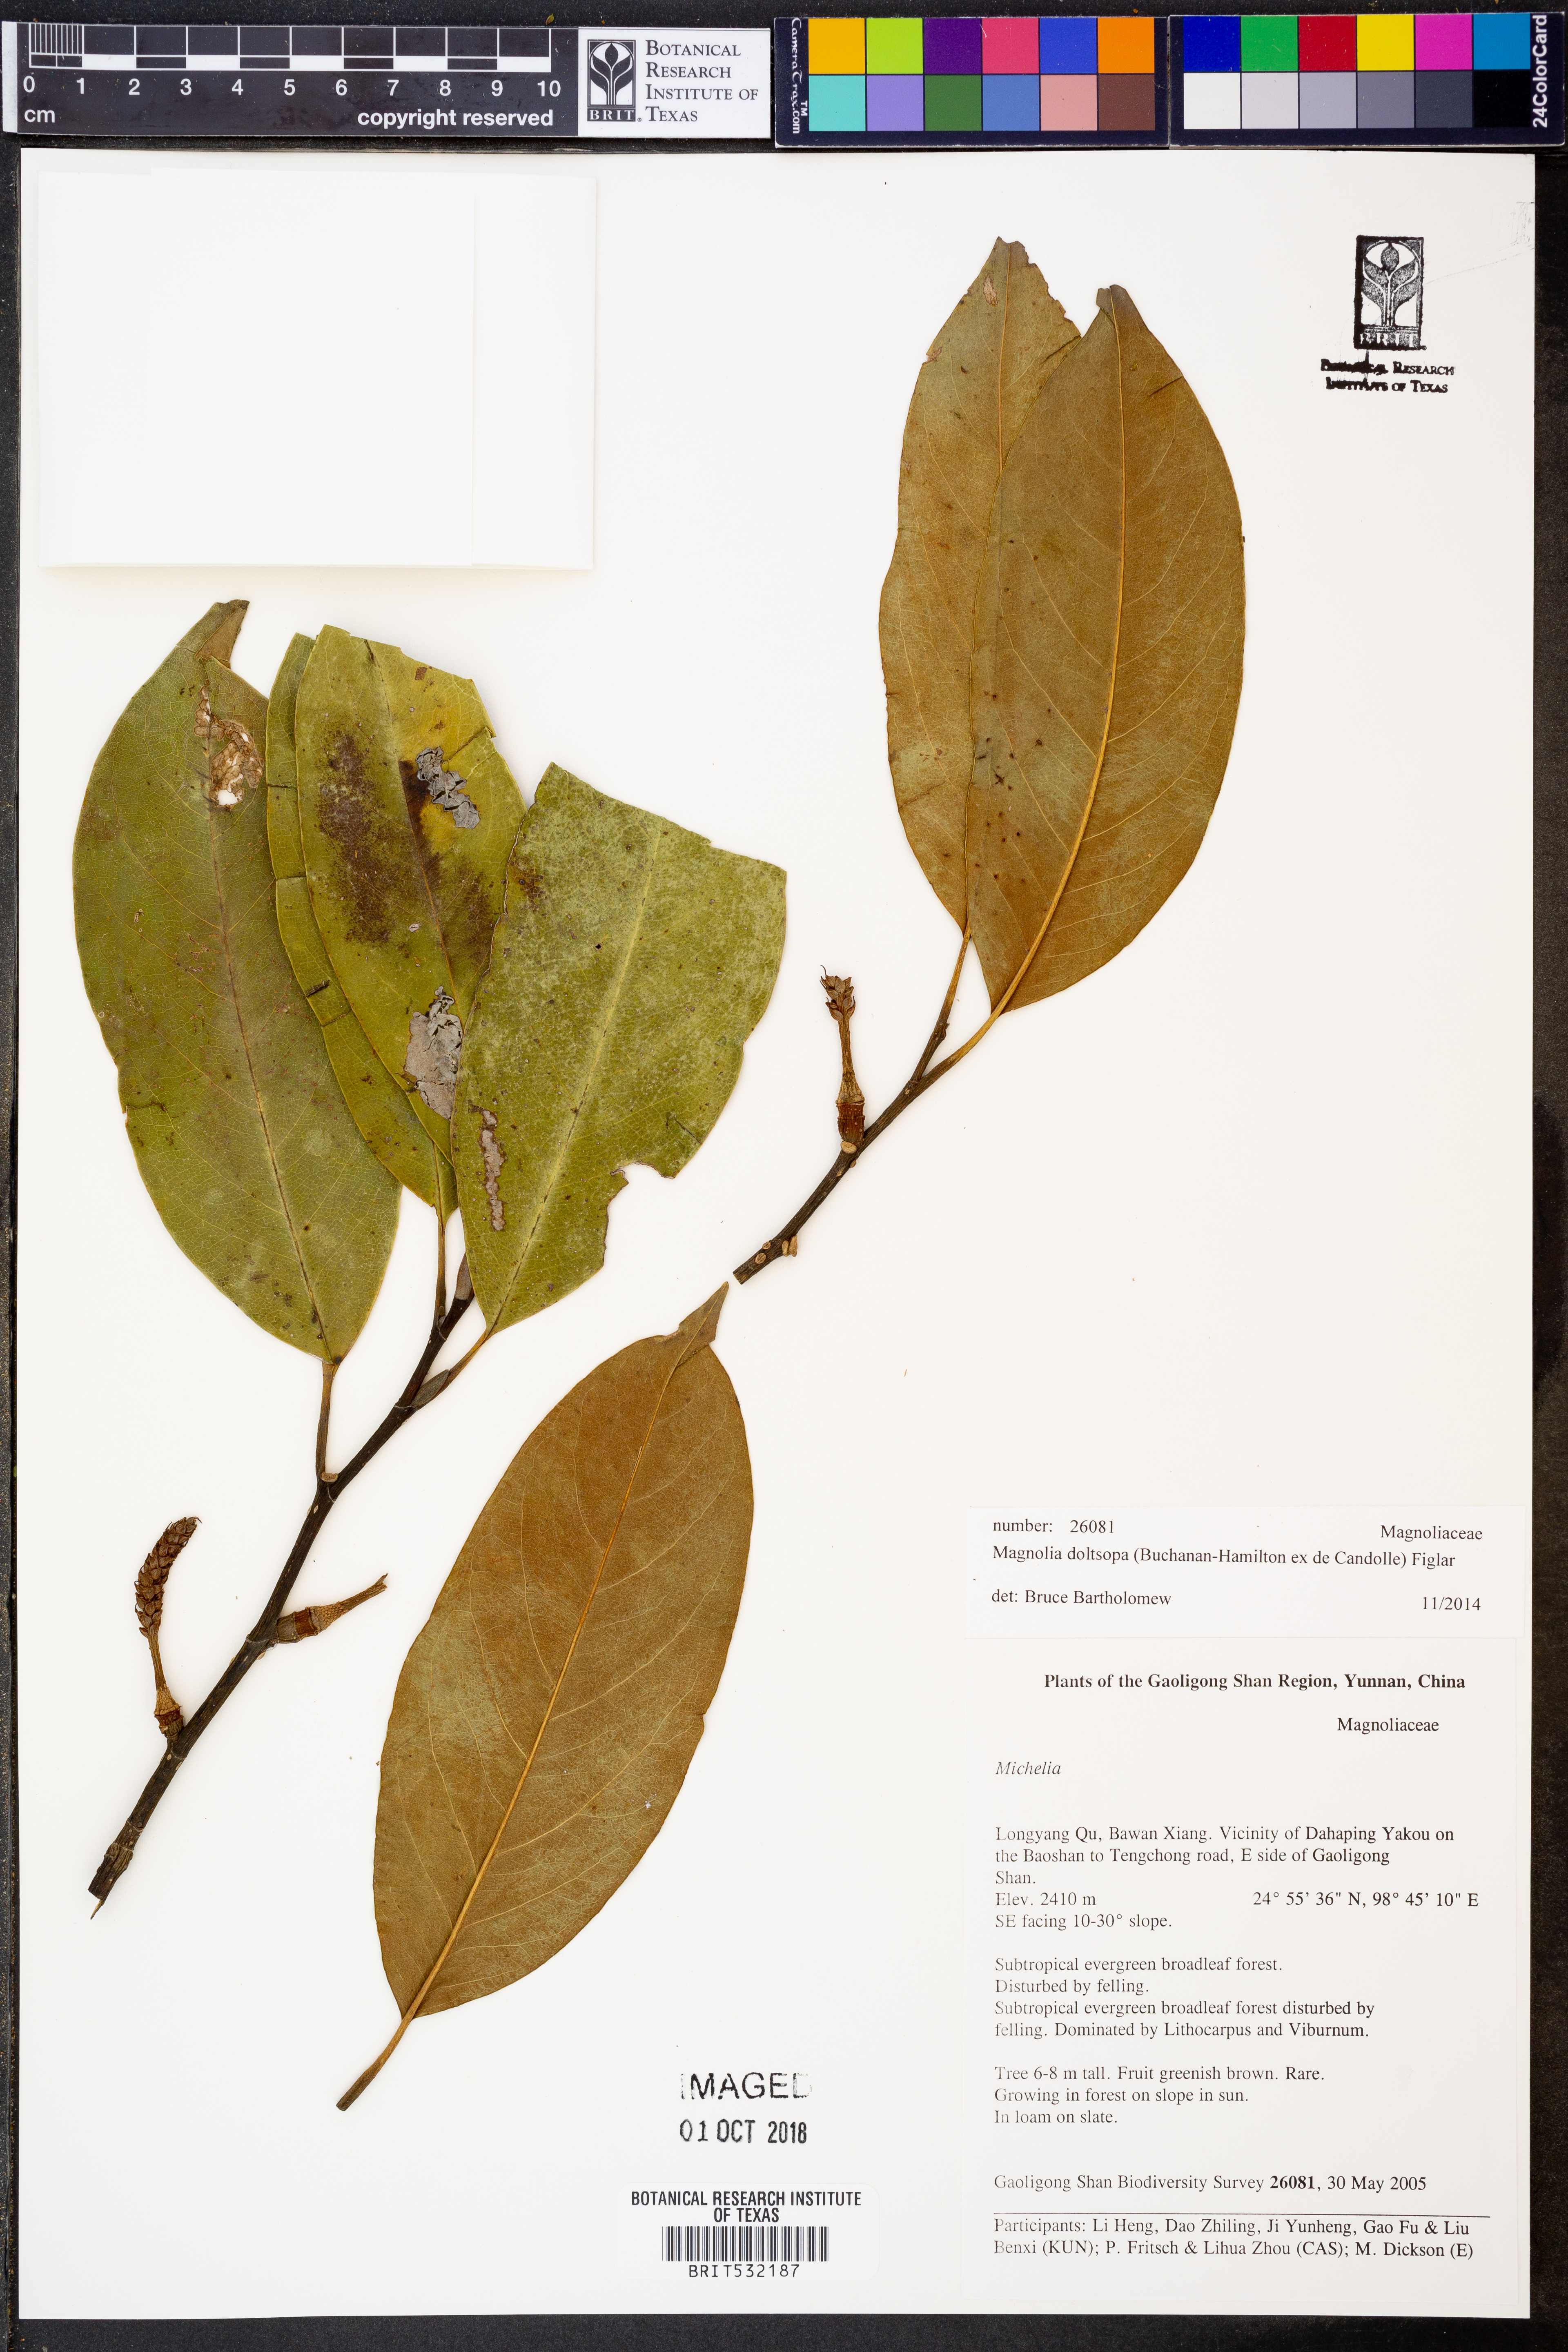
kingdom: Plantae
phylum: Tracheophyta
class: Magnoliopsida
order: Magnoliales
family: Magnoliaceae
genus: Magnolia
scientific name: Magnolia doltsopa
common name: Sweet michelia
